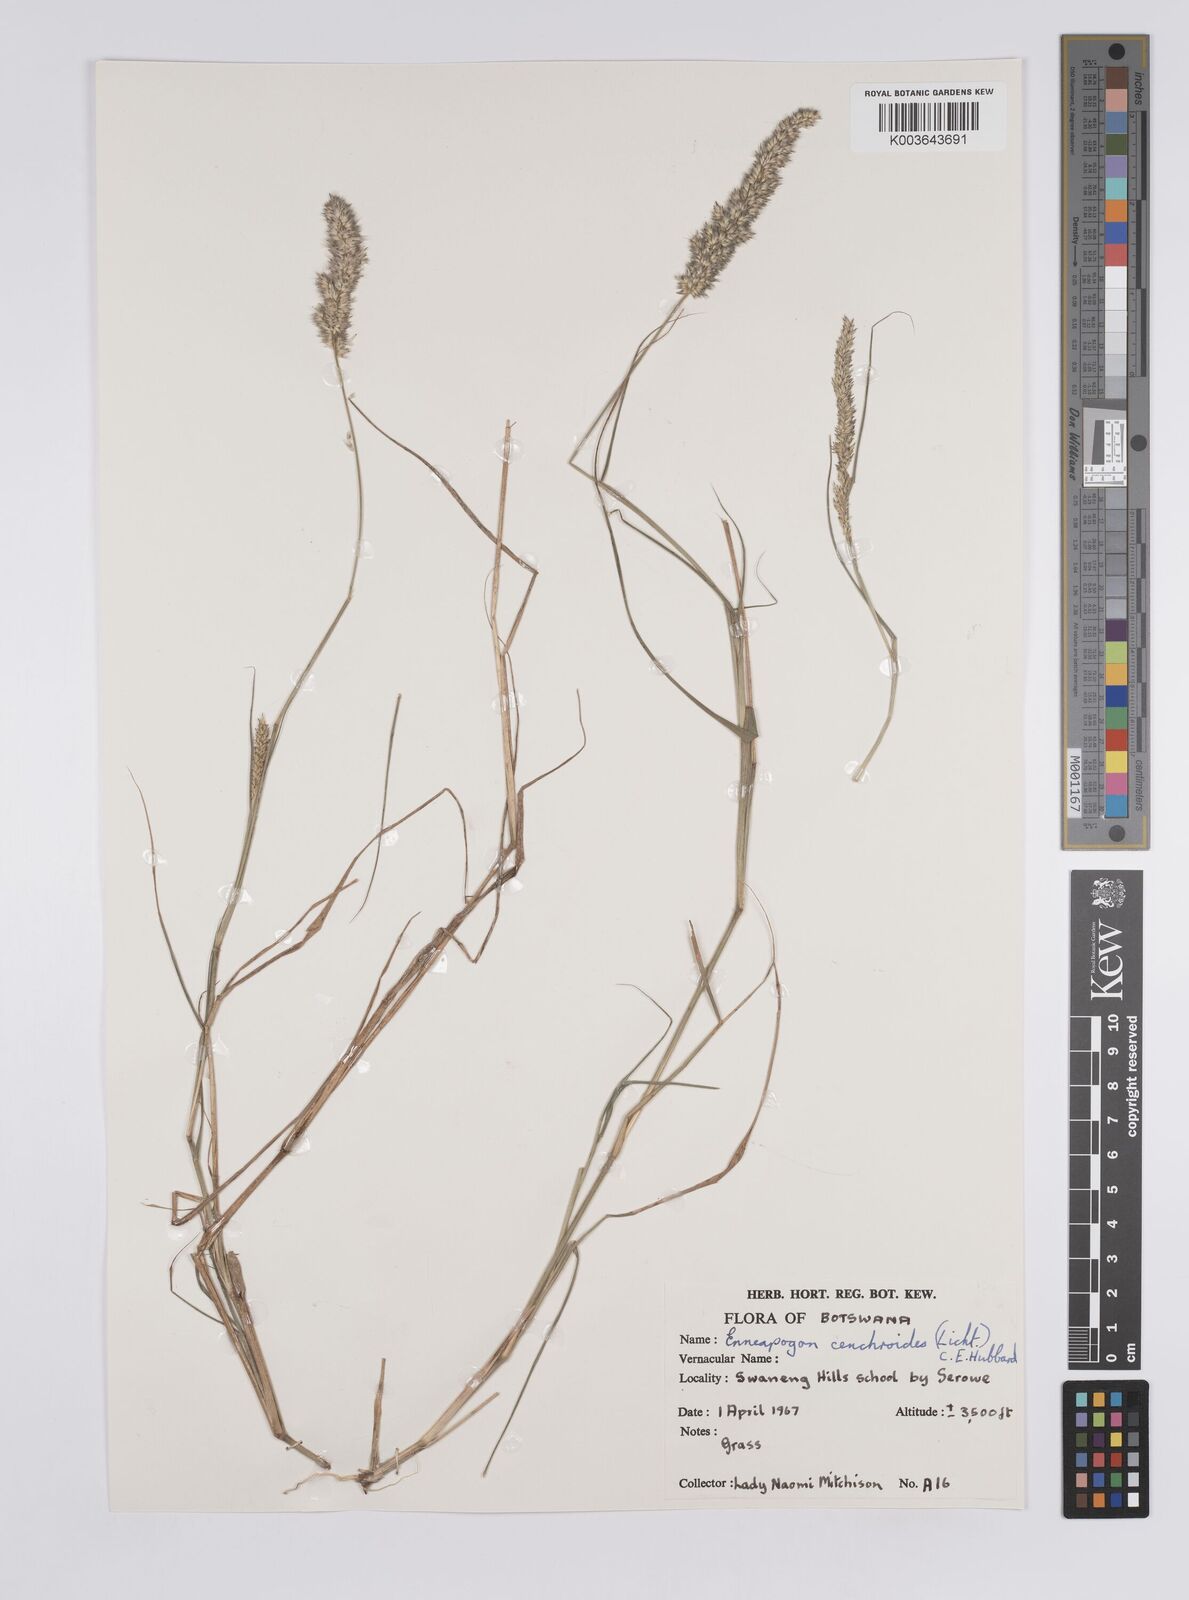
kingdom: Plantae
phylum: Tracheophyta
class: Liliopsida
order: Poales
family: Poaceae
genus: Enneapogon
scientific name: Enneapogon cenchroides
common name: Soft feather pappusgrass
